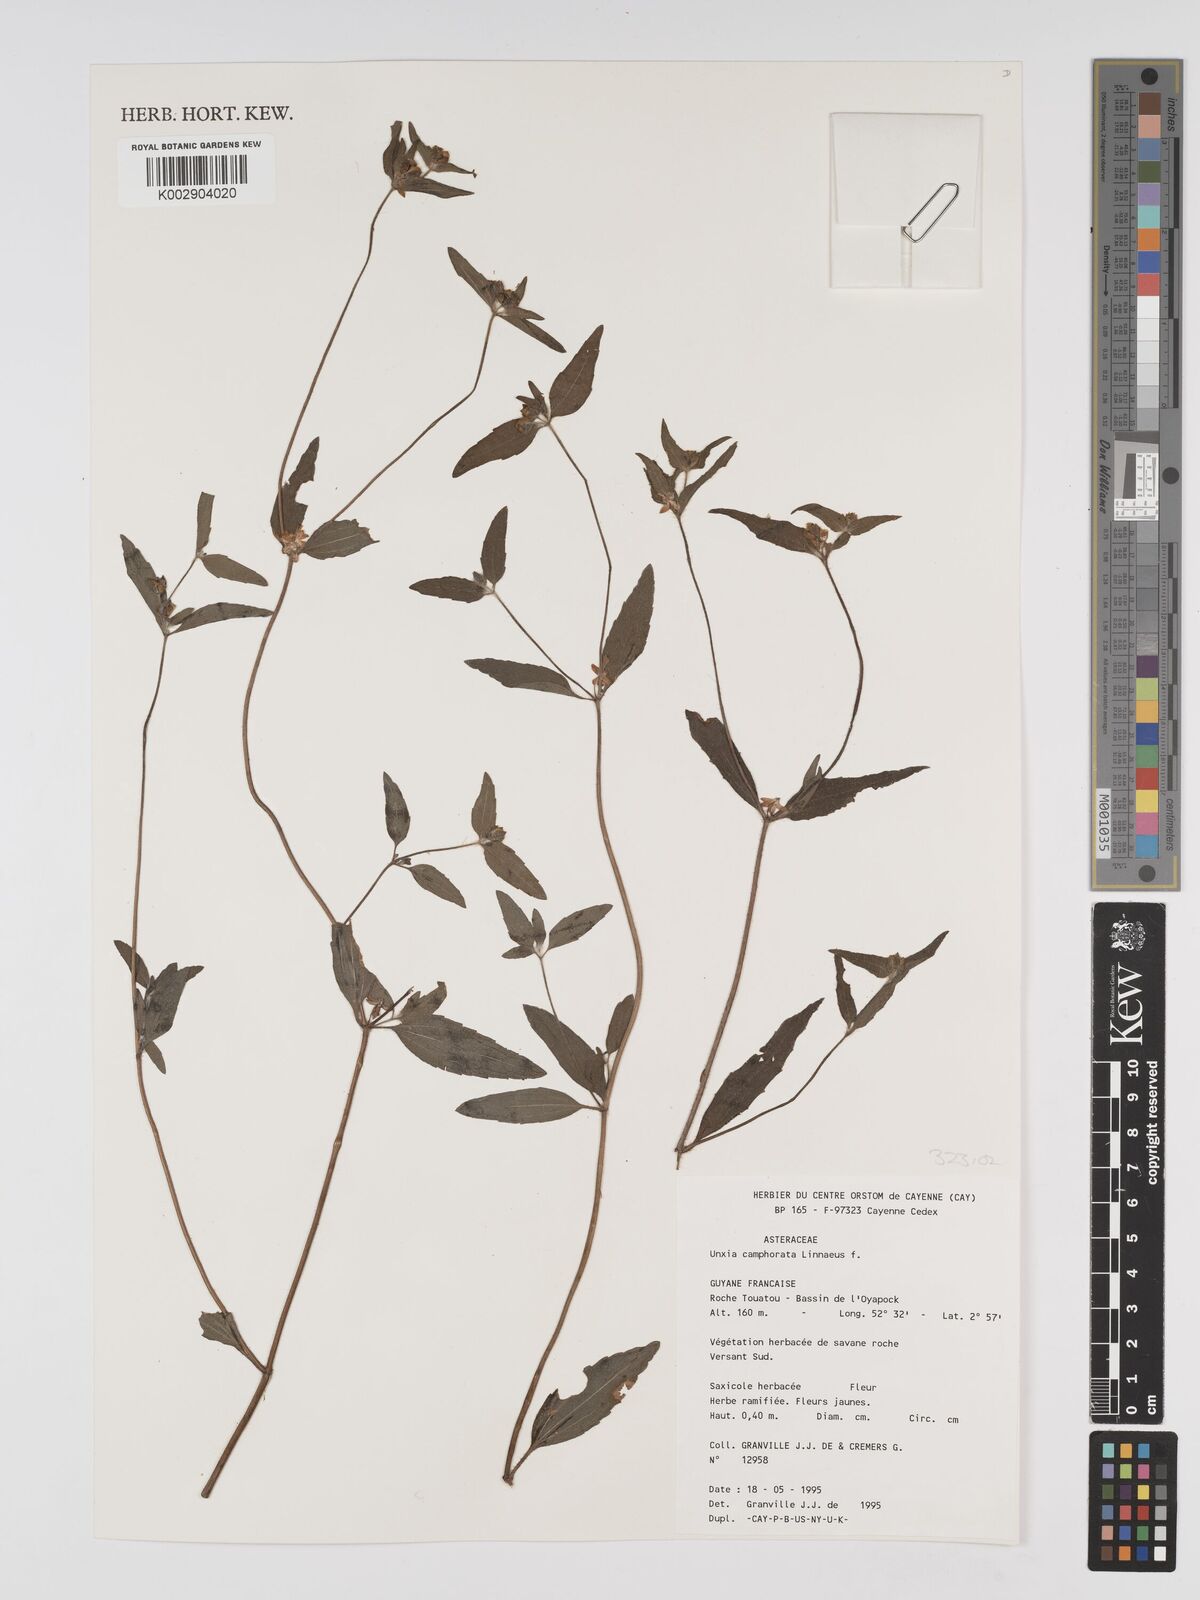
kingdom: Plantae
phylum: Tracheophyta
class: Magnoliopsida
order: Asterales
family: Asteraceae
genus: Unxia
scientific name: Unxia camphorata
